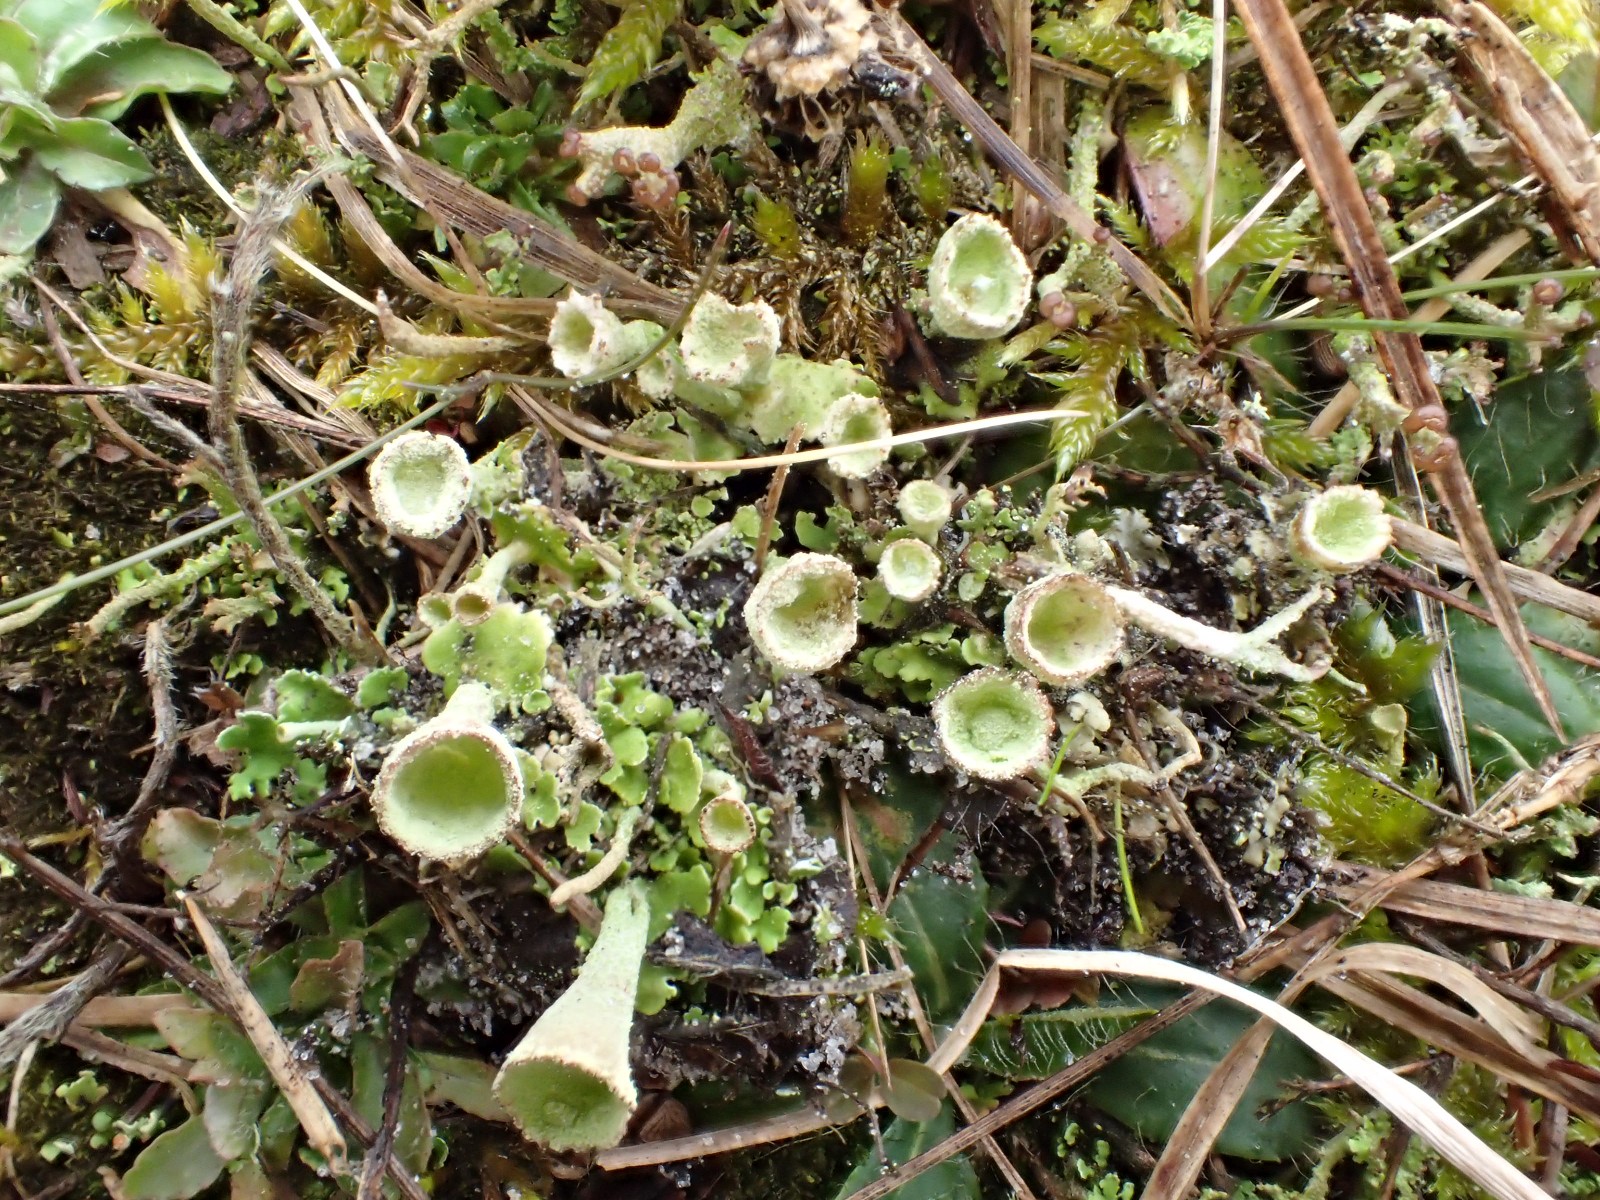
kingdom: Fungi
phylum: Ascomycota
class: Lecanoromycetes
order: Lecanorales
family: Cladoniaceae
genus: Cladonia
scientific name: Cladonia humilis
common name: lav bægerlav
